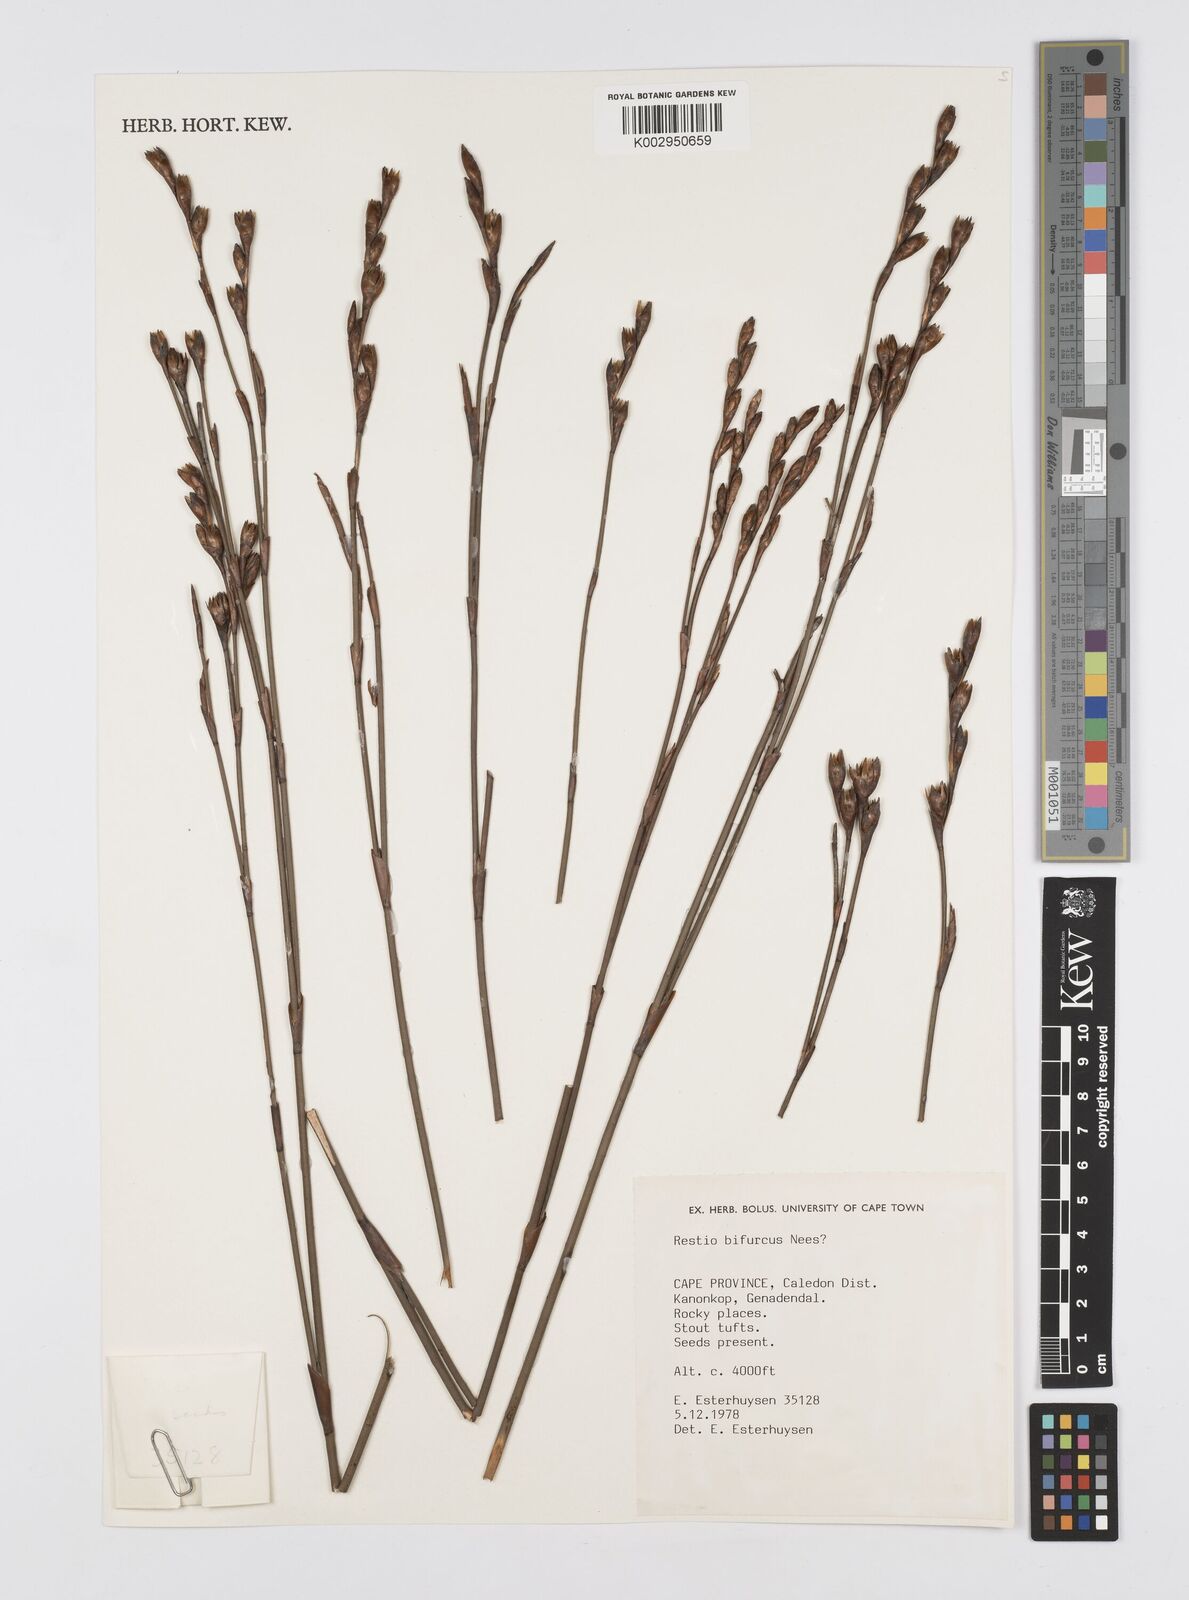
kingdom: Plantae
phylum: Tracheophyta
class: Liliopsida
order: Poales
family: Restionaceae
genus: Restio
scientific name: Restio bifurcus
